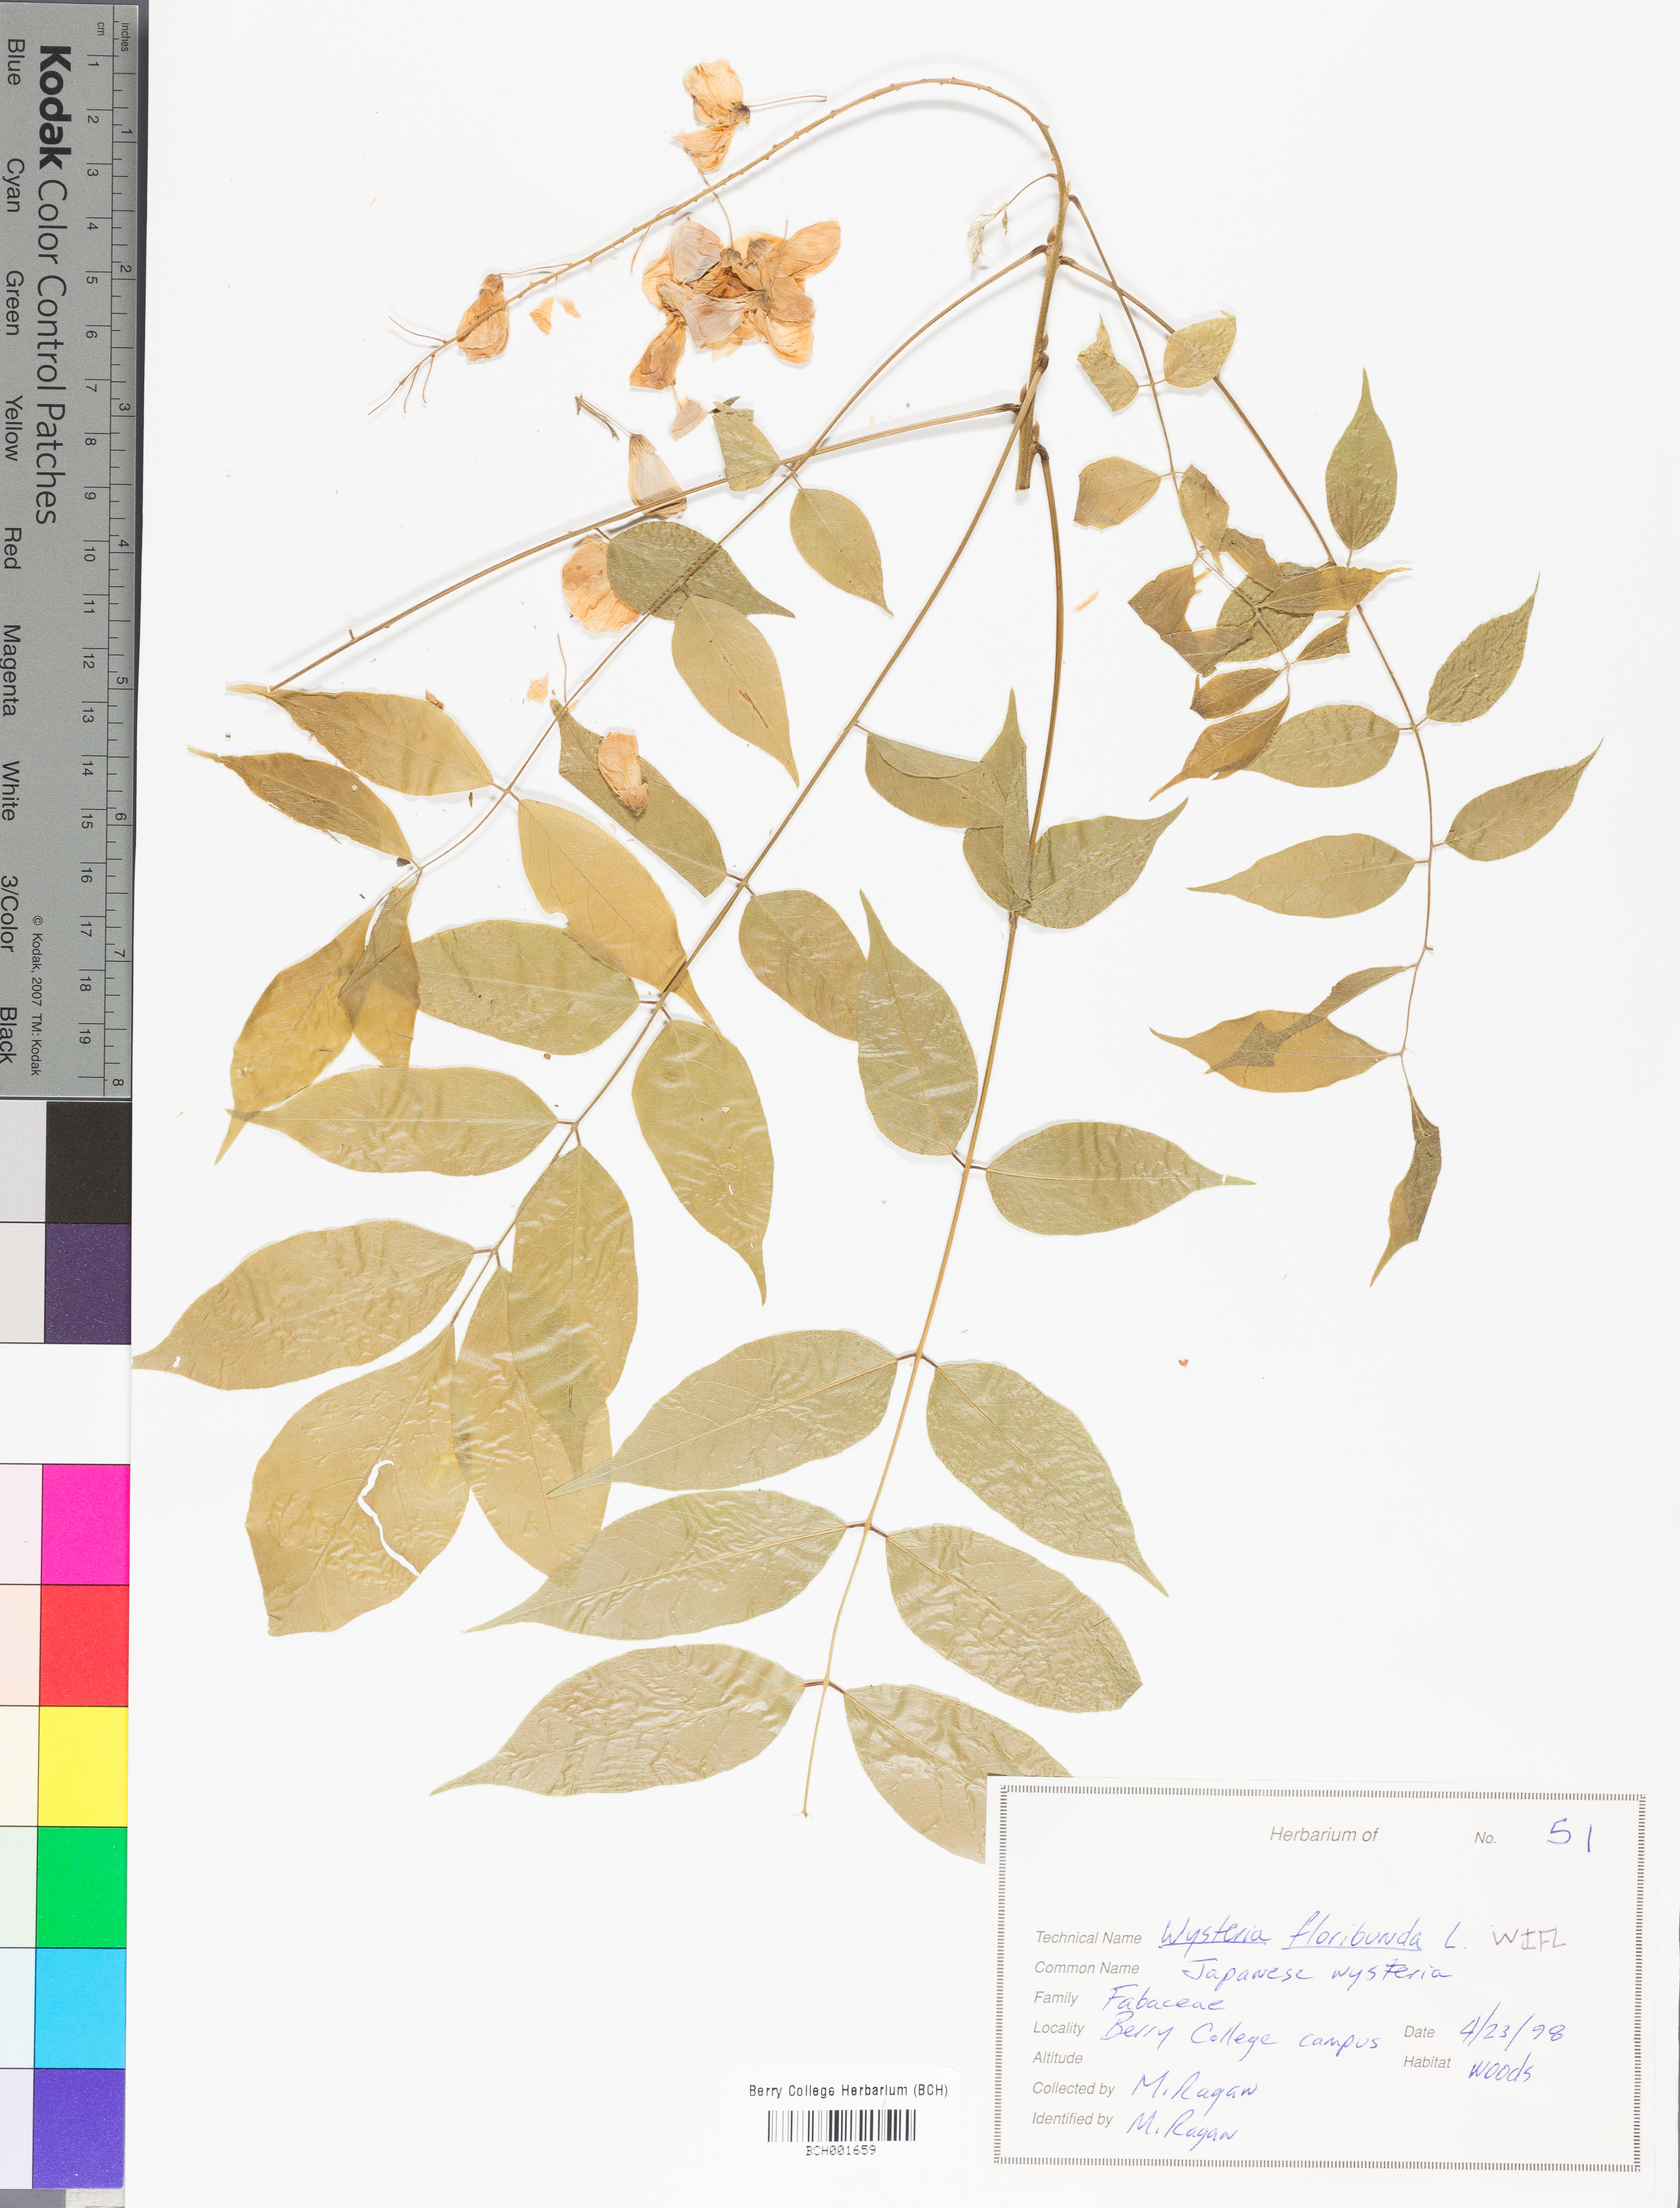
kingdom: Plantae
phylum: Tracheophyta
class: Magnoliopsida
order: Fabales
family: Fabaceae
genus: Wisteria
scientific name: Wisteria floribunda
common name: Japanese wisteria
